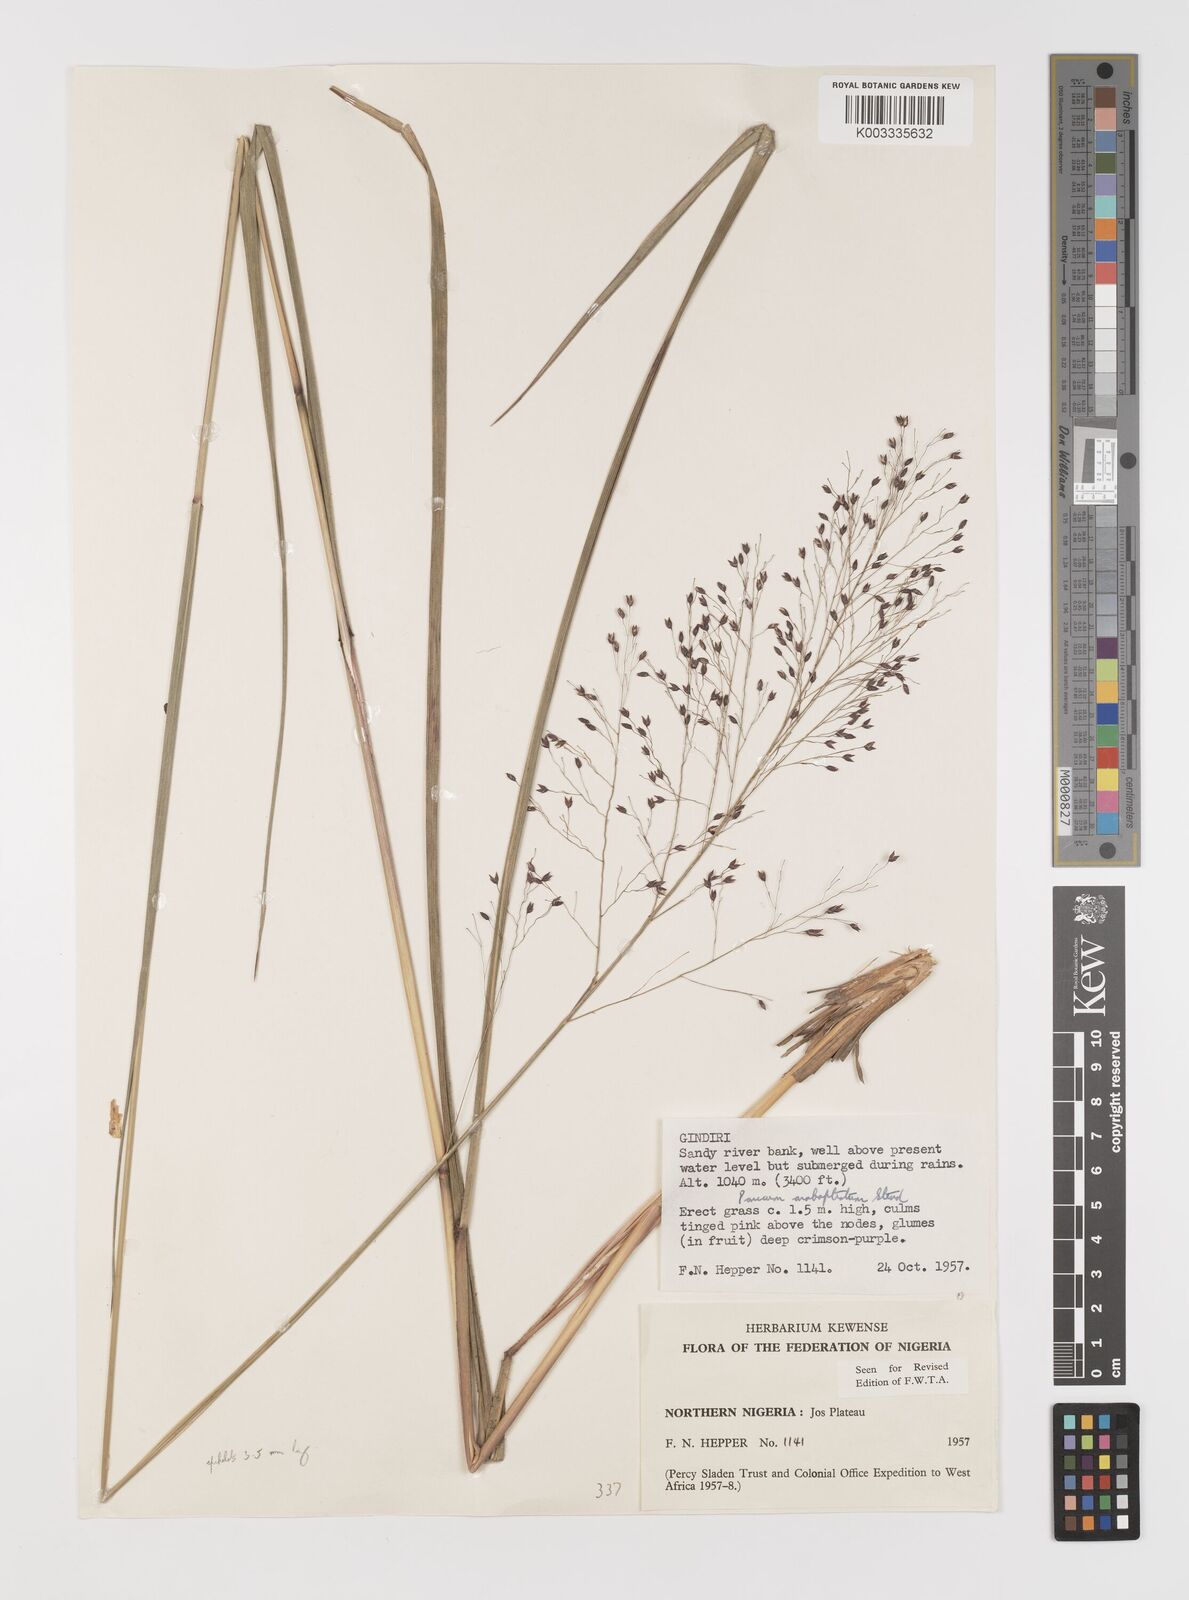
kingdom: Plantae
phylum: Tracheophyta
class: Liliopsida
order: Poales
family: Poaceae
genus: Panicum
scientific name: Panicum anabaptistum
